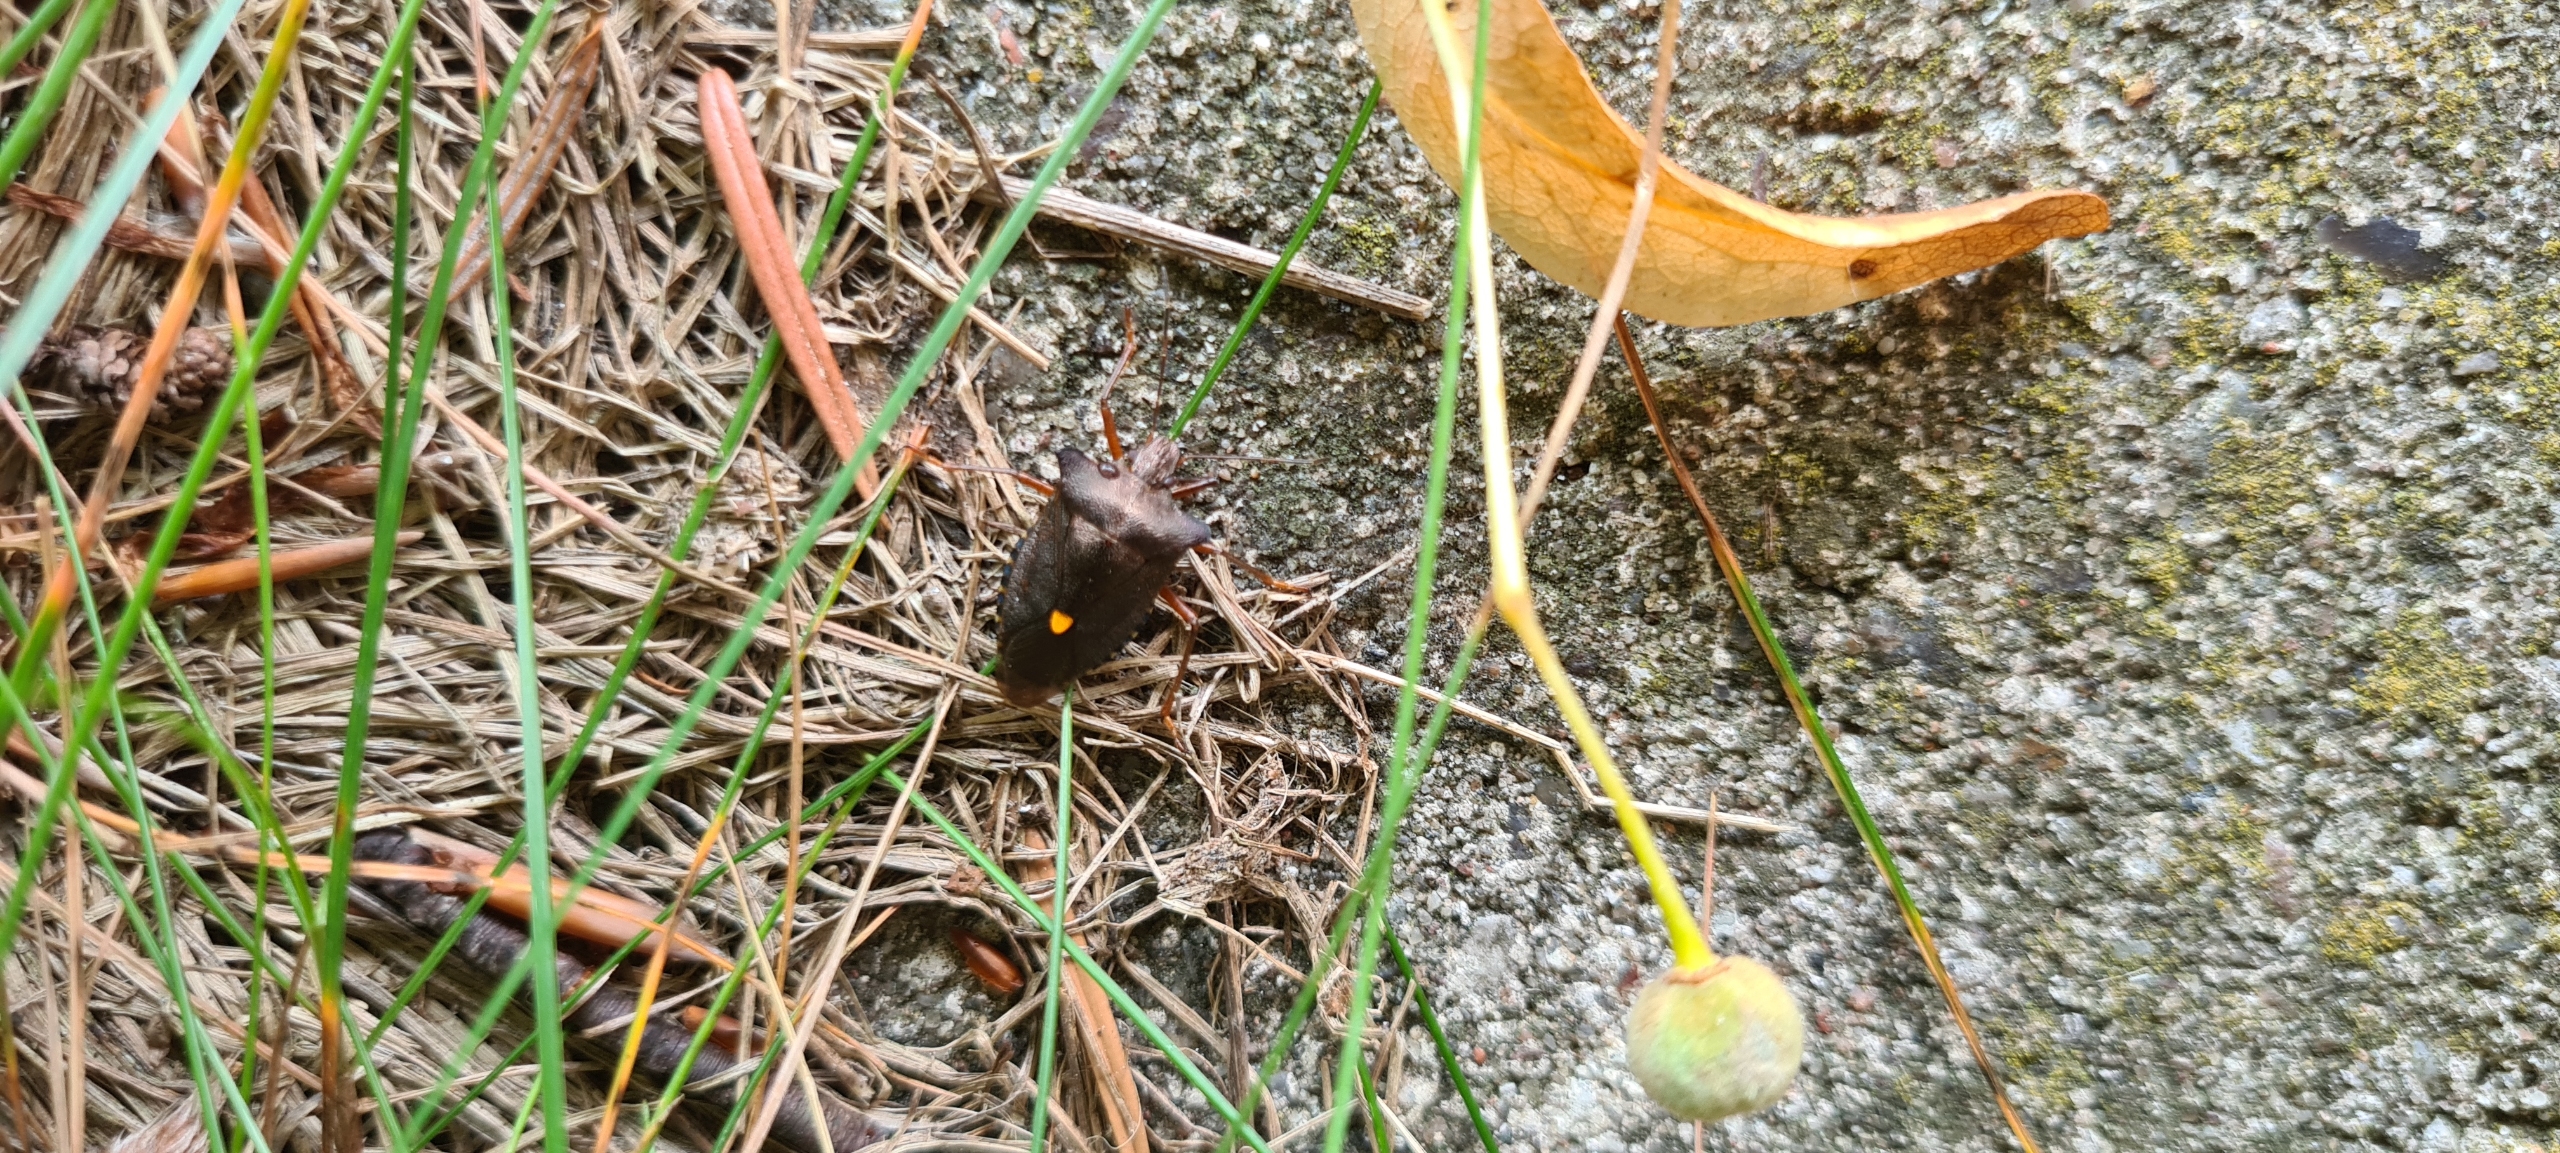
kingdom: Animalia
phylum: Arthropoda
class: Insecta
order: Hemiptera
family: Pentatomidae
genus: Pentatoma
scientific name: Pentatoma rufipes
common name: Rødbenet bredtæge
